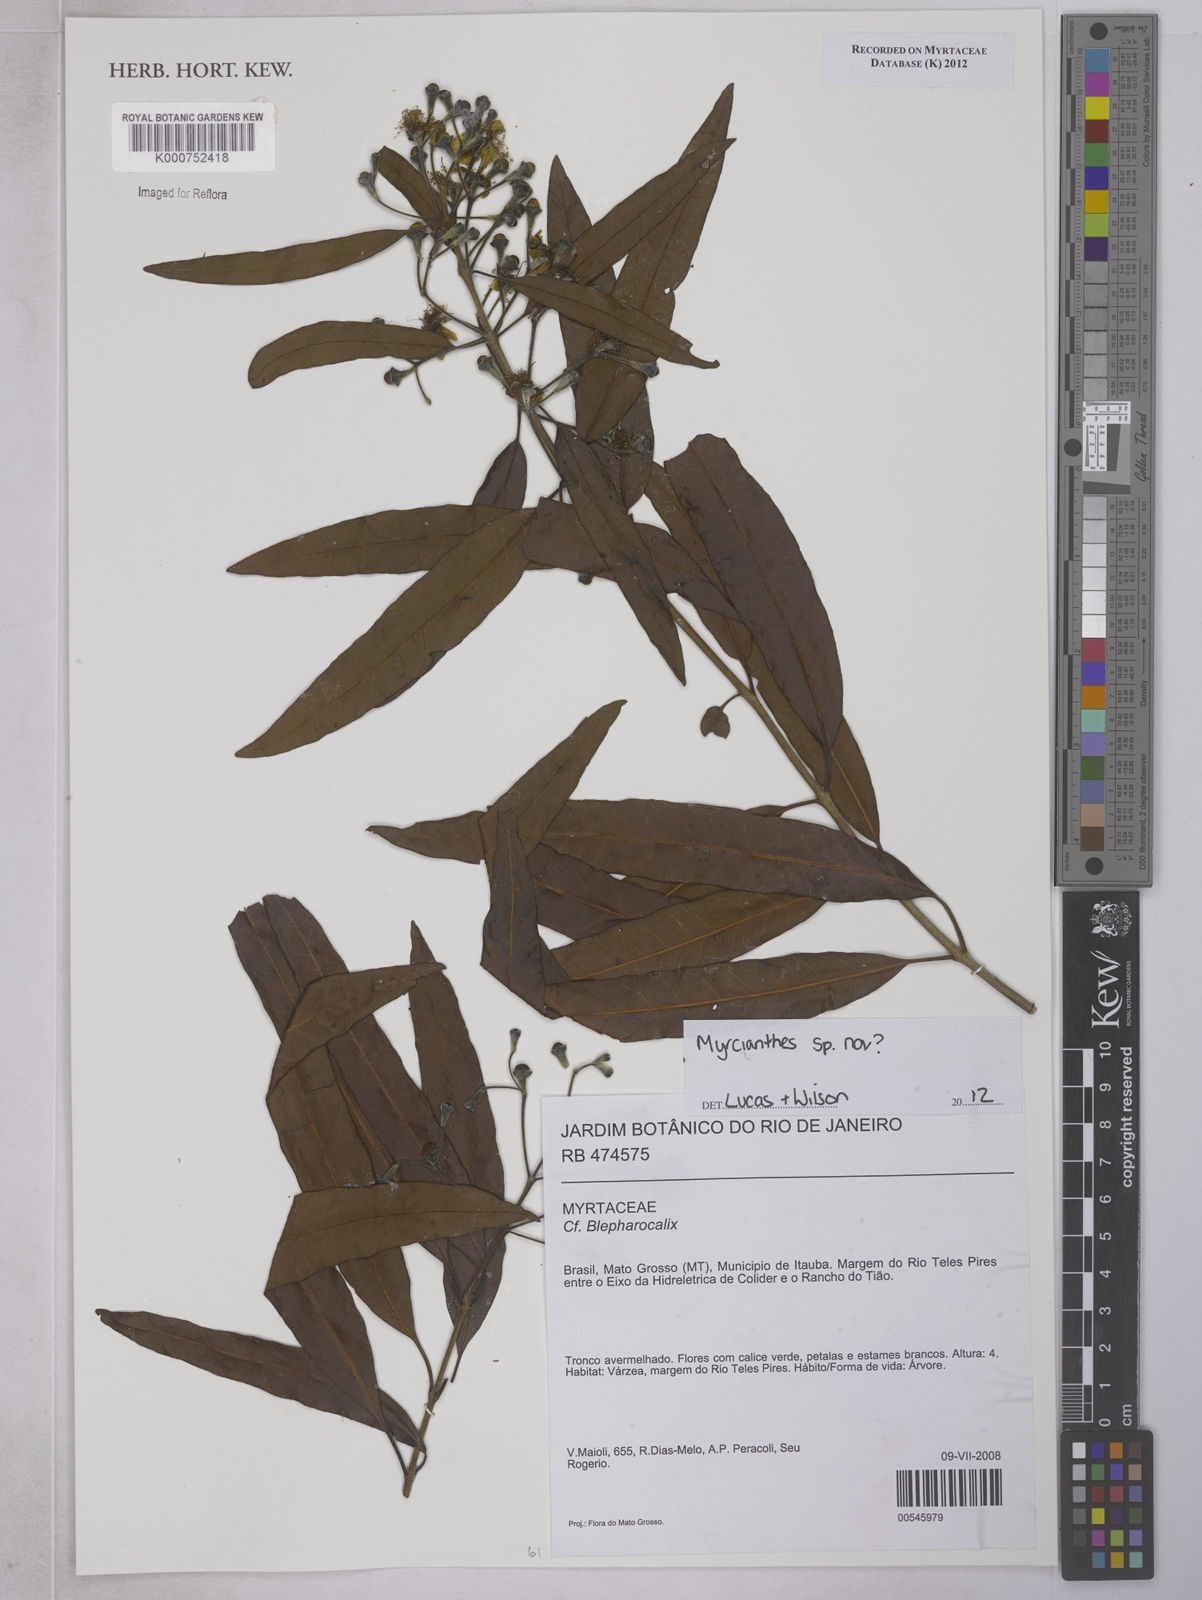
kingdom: Plantae
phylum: Tracheophyta
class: Magnoliopsida
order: Myrtales
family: Myrtaceae
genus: Myrcianthes
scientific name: Myrcianthes
